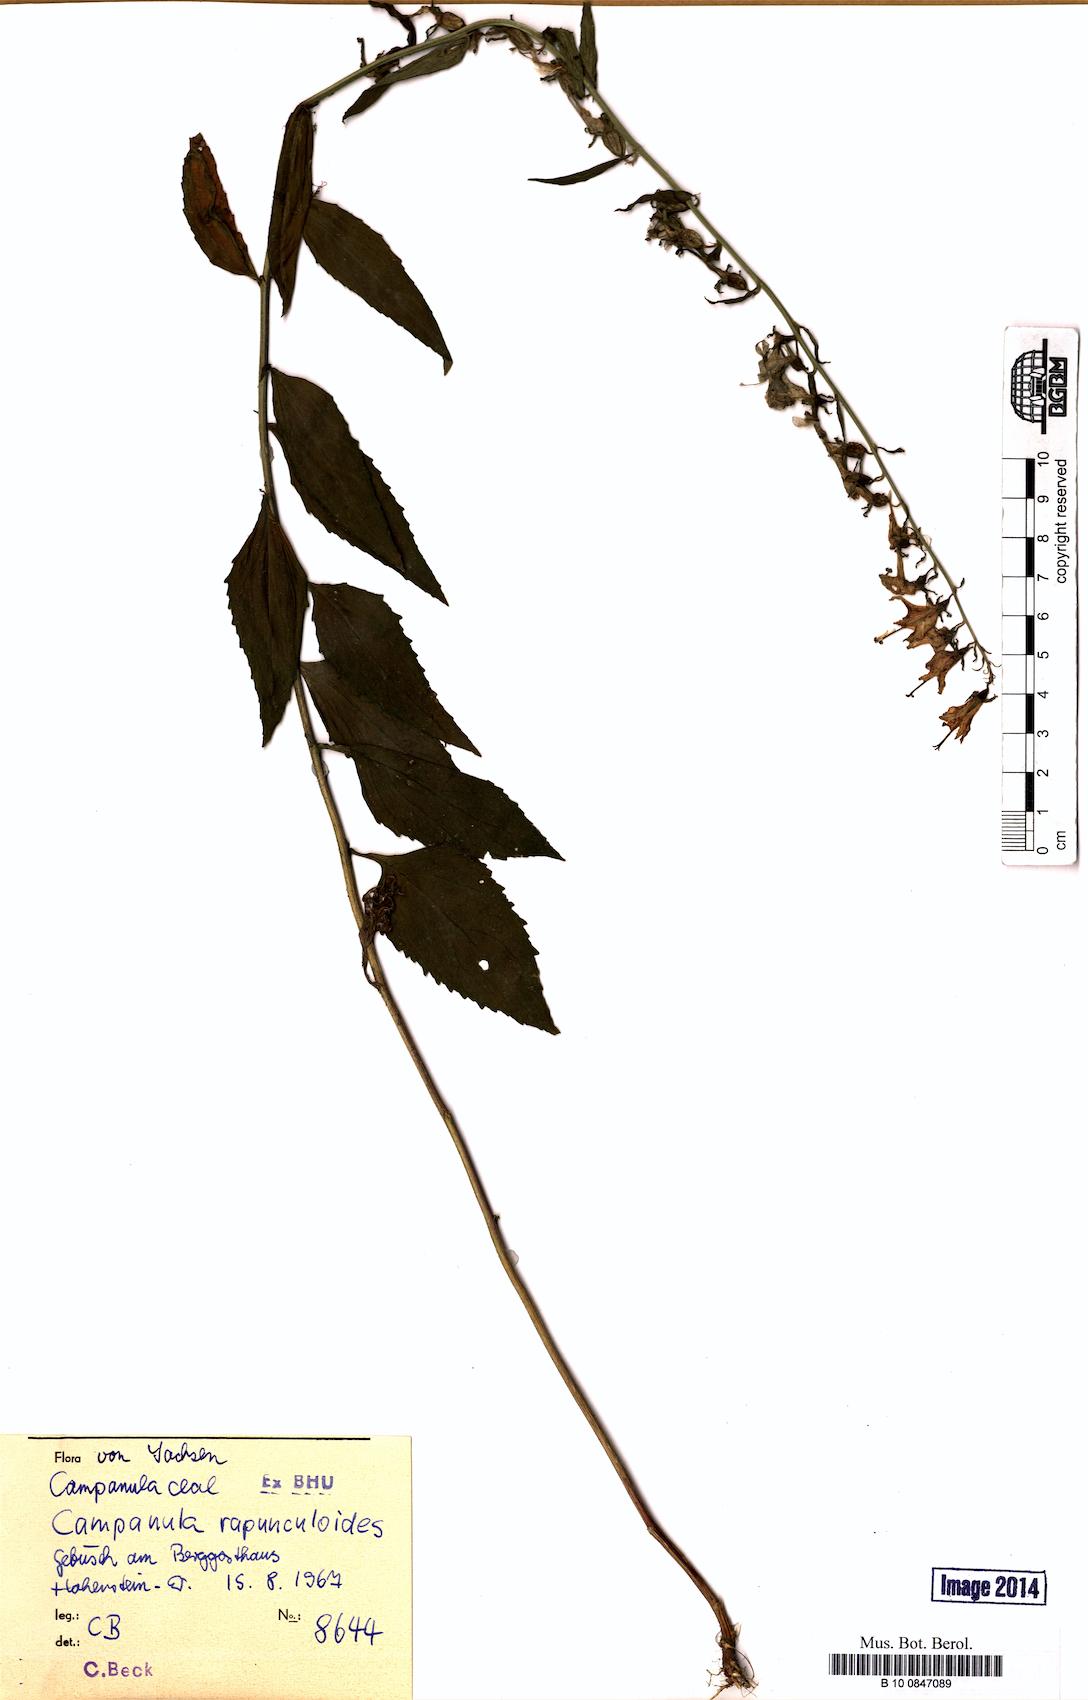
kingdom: Plantae
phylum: Tracheophyta
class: Magnoliopsida
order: Asterales
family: Campanulaceae
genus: Campanula
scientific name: Campanula rapunculoides
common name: Creeping bellflower
